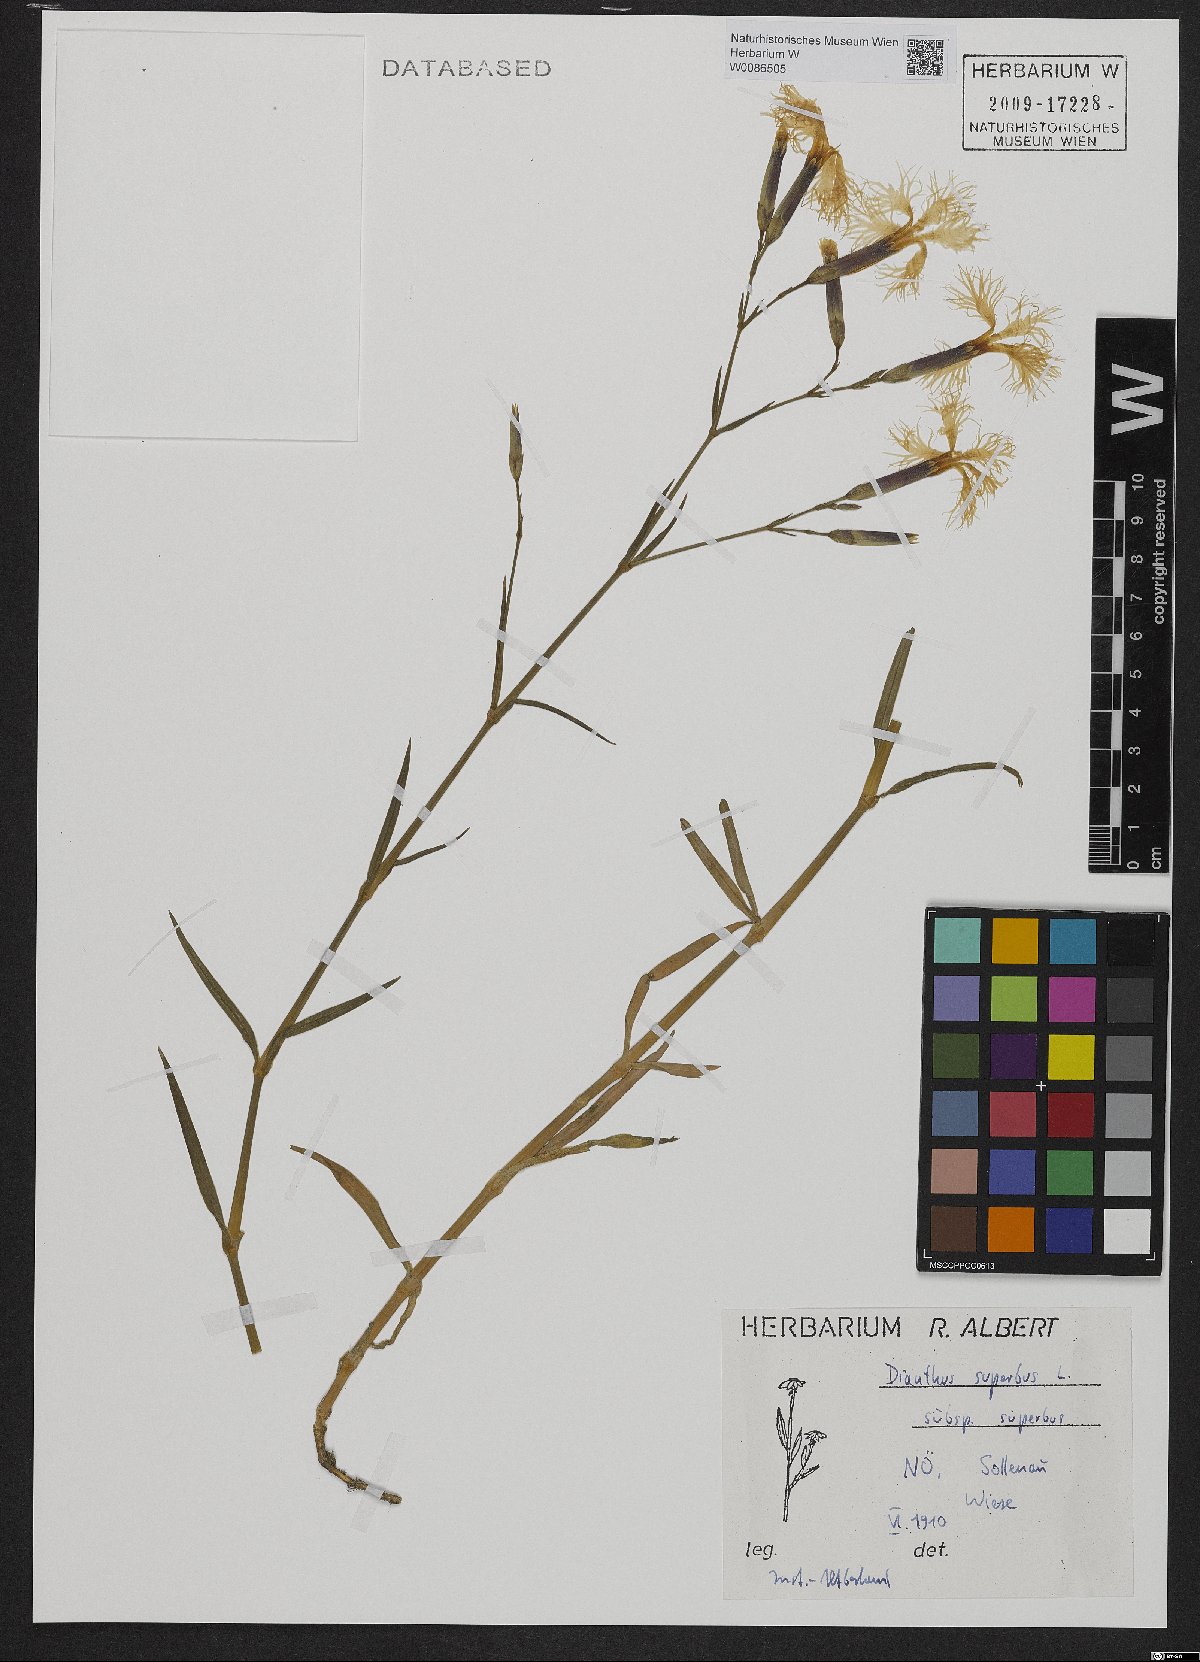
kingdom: Plantae
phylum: Tracheophyta
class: Magnoliopsida
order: Caryophyllales
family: Caryophyllaceae
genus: Dianthus
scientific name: Dianthus superbus
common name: Fringed pink
